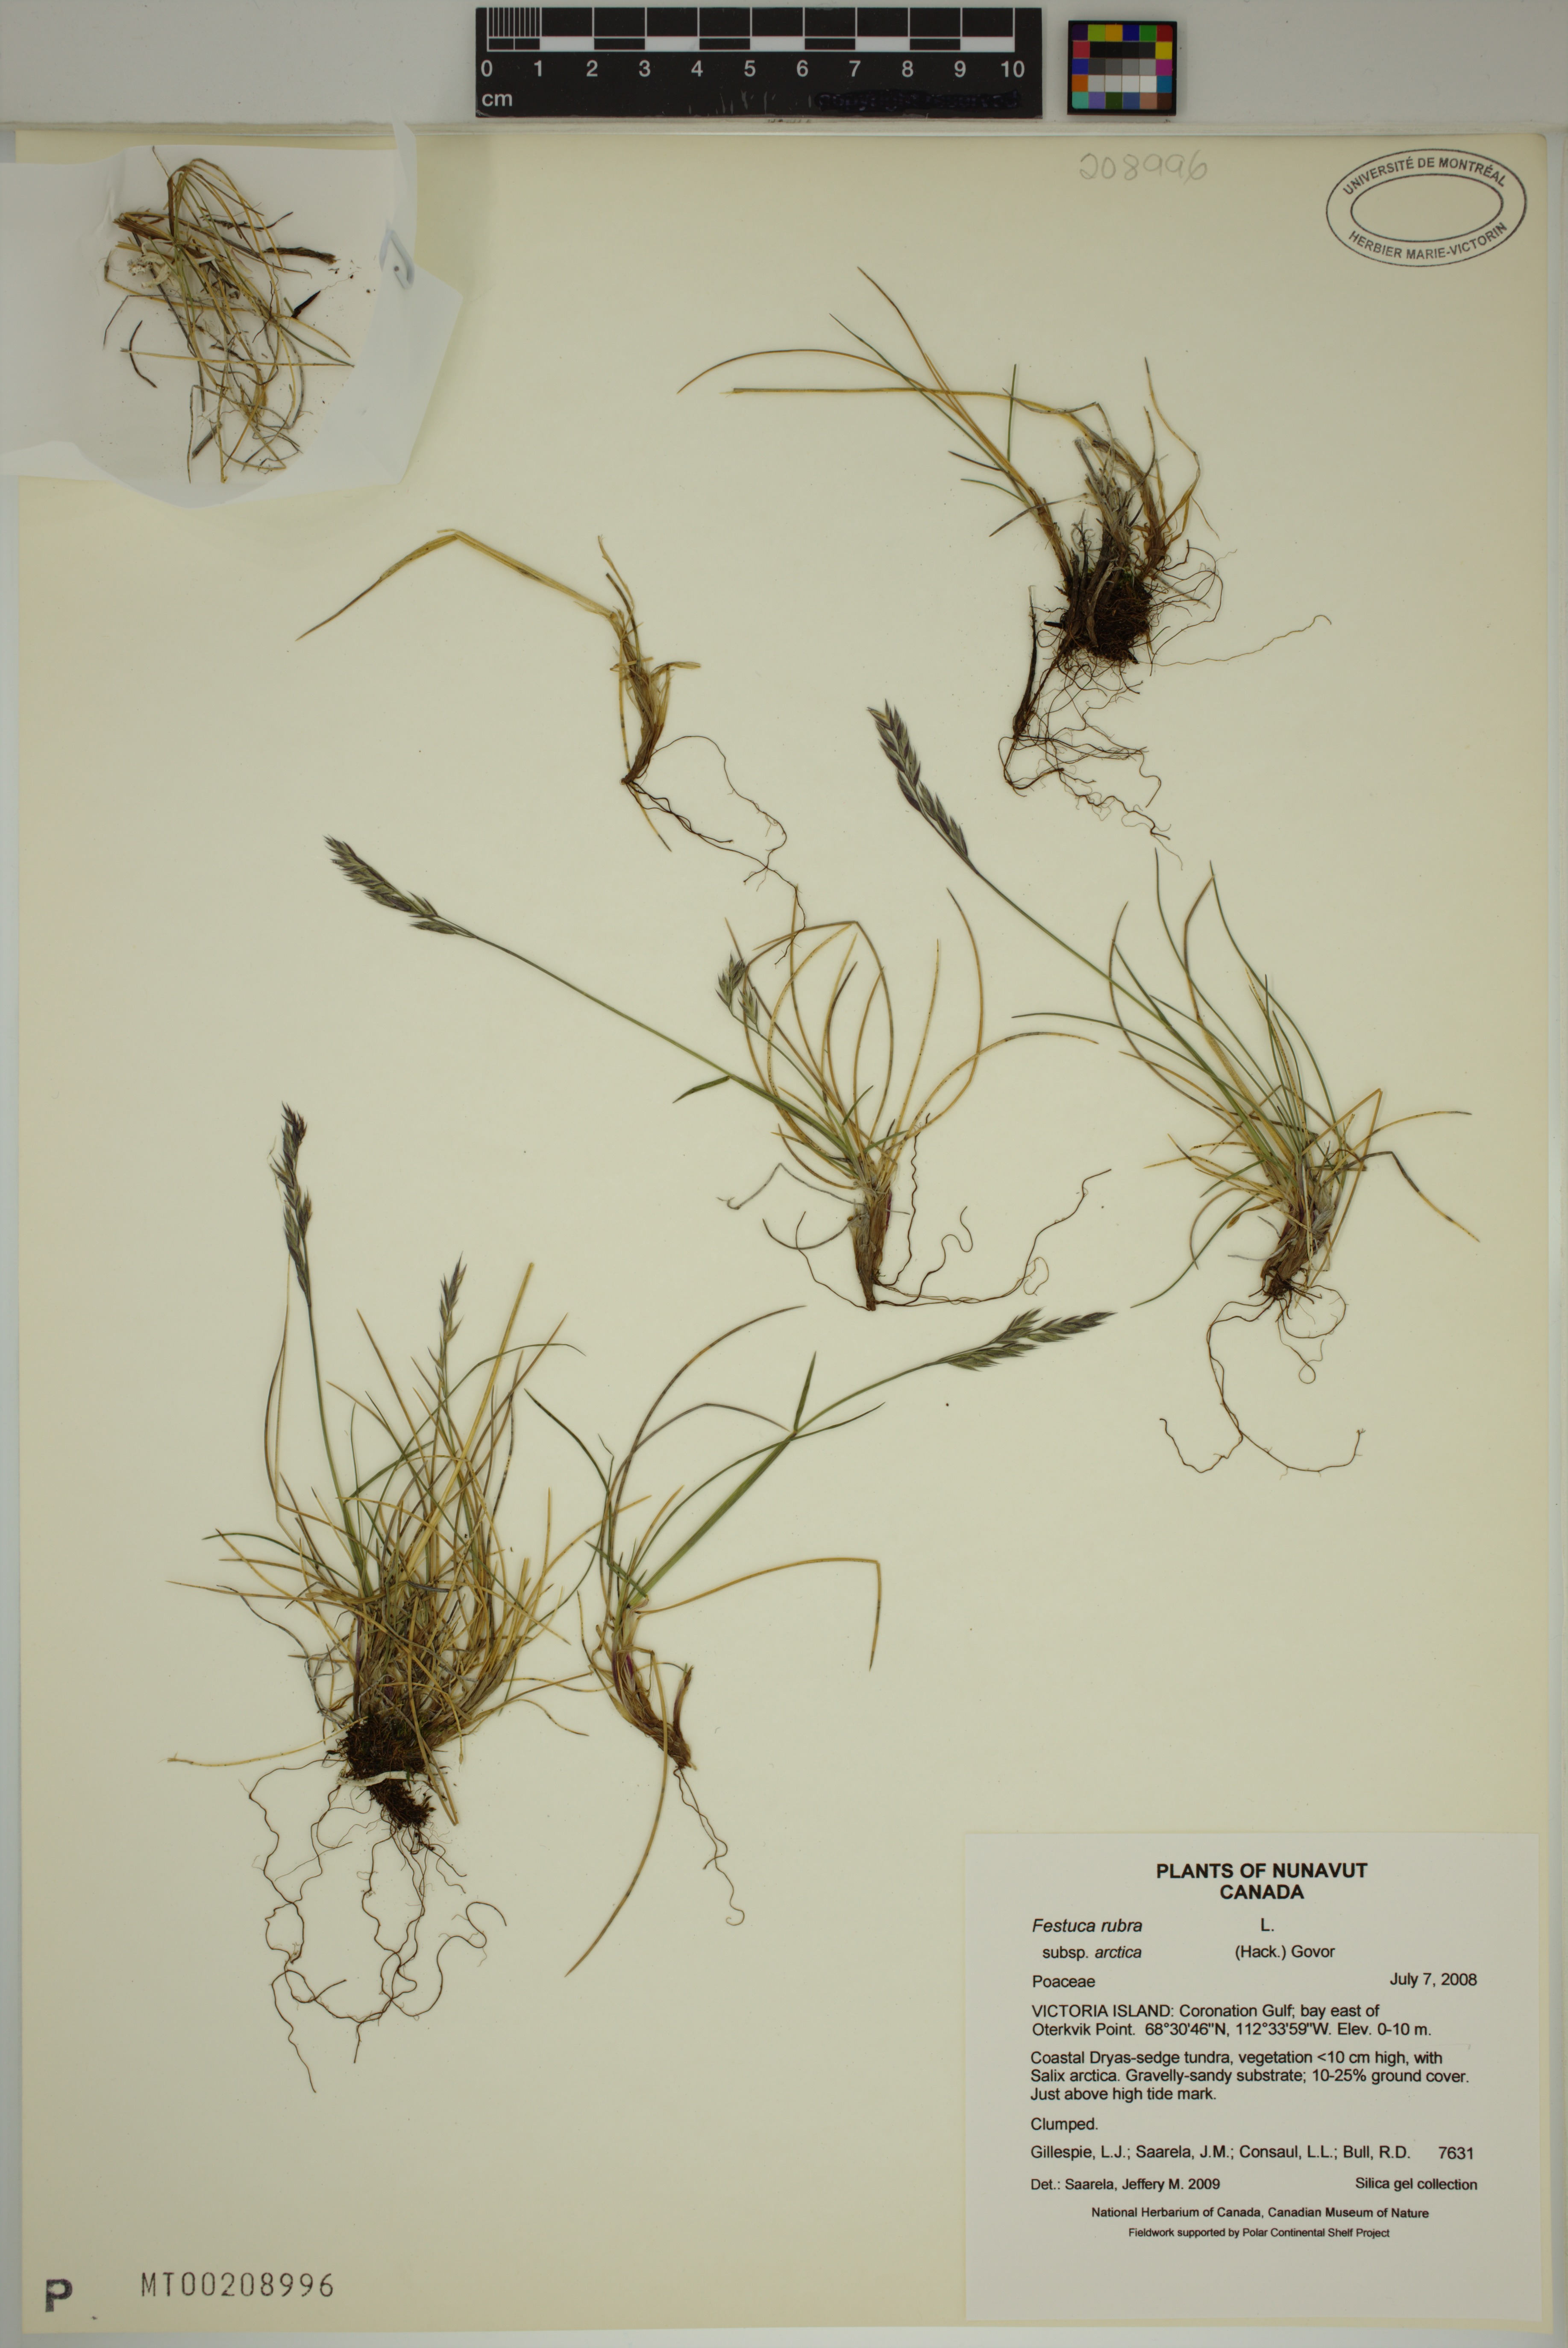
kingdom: Plantae
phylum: Tracheophyta
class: Liliopsida
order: Poales
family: Poaceae
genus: Festuca
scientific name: Festuca richardsonii
